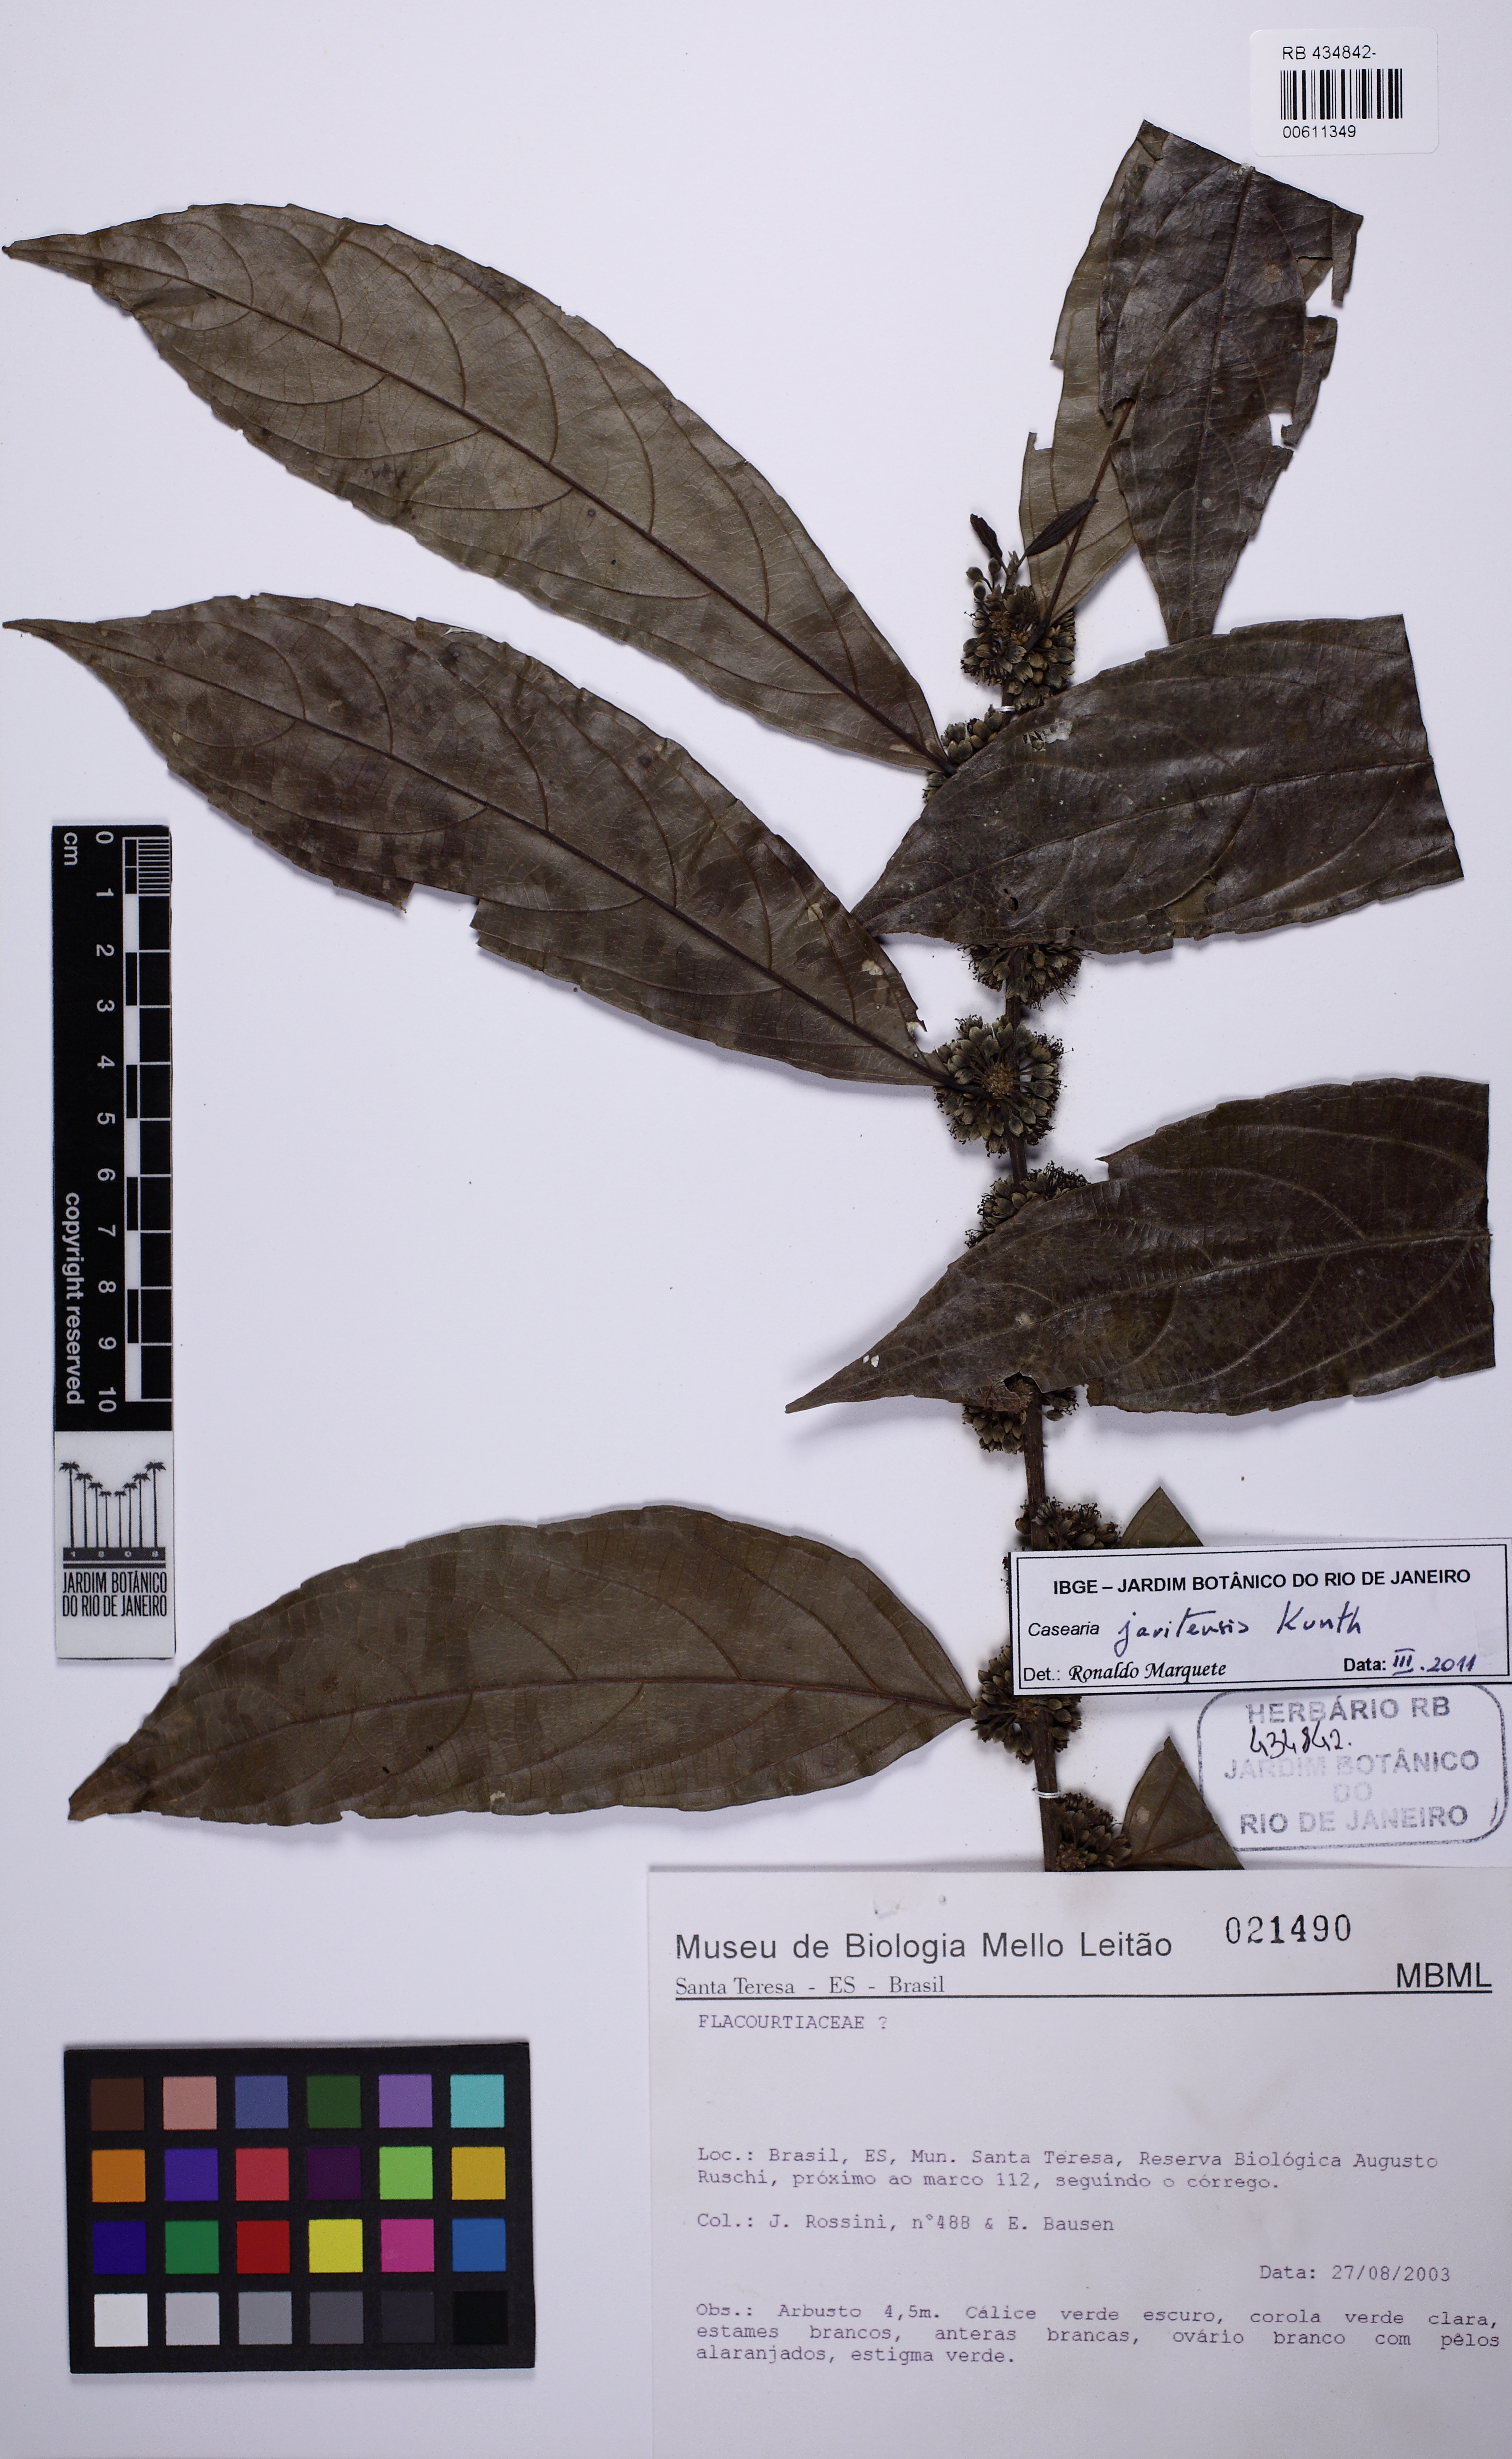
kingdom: Plantae
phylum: Tracheophyta
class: Magnoliopsida
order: Malpighiales
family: Salicaceae
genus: Piparea
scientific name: Piparea multiflora
